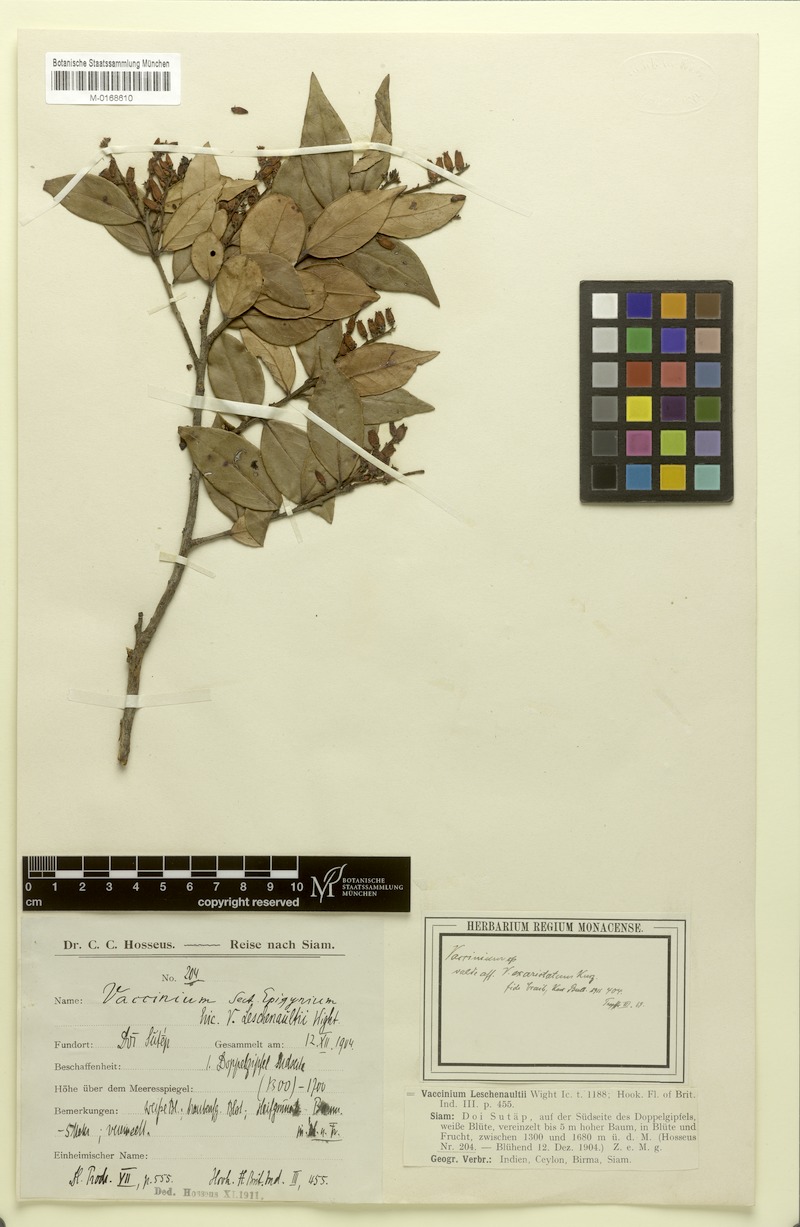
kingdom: Plantae
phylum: Tracheophyta
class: Magnoliopsida
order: Ericales
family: Ericaceae
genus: Vaccinium
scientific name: Vaccinium exaristatum
